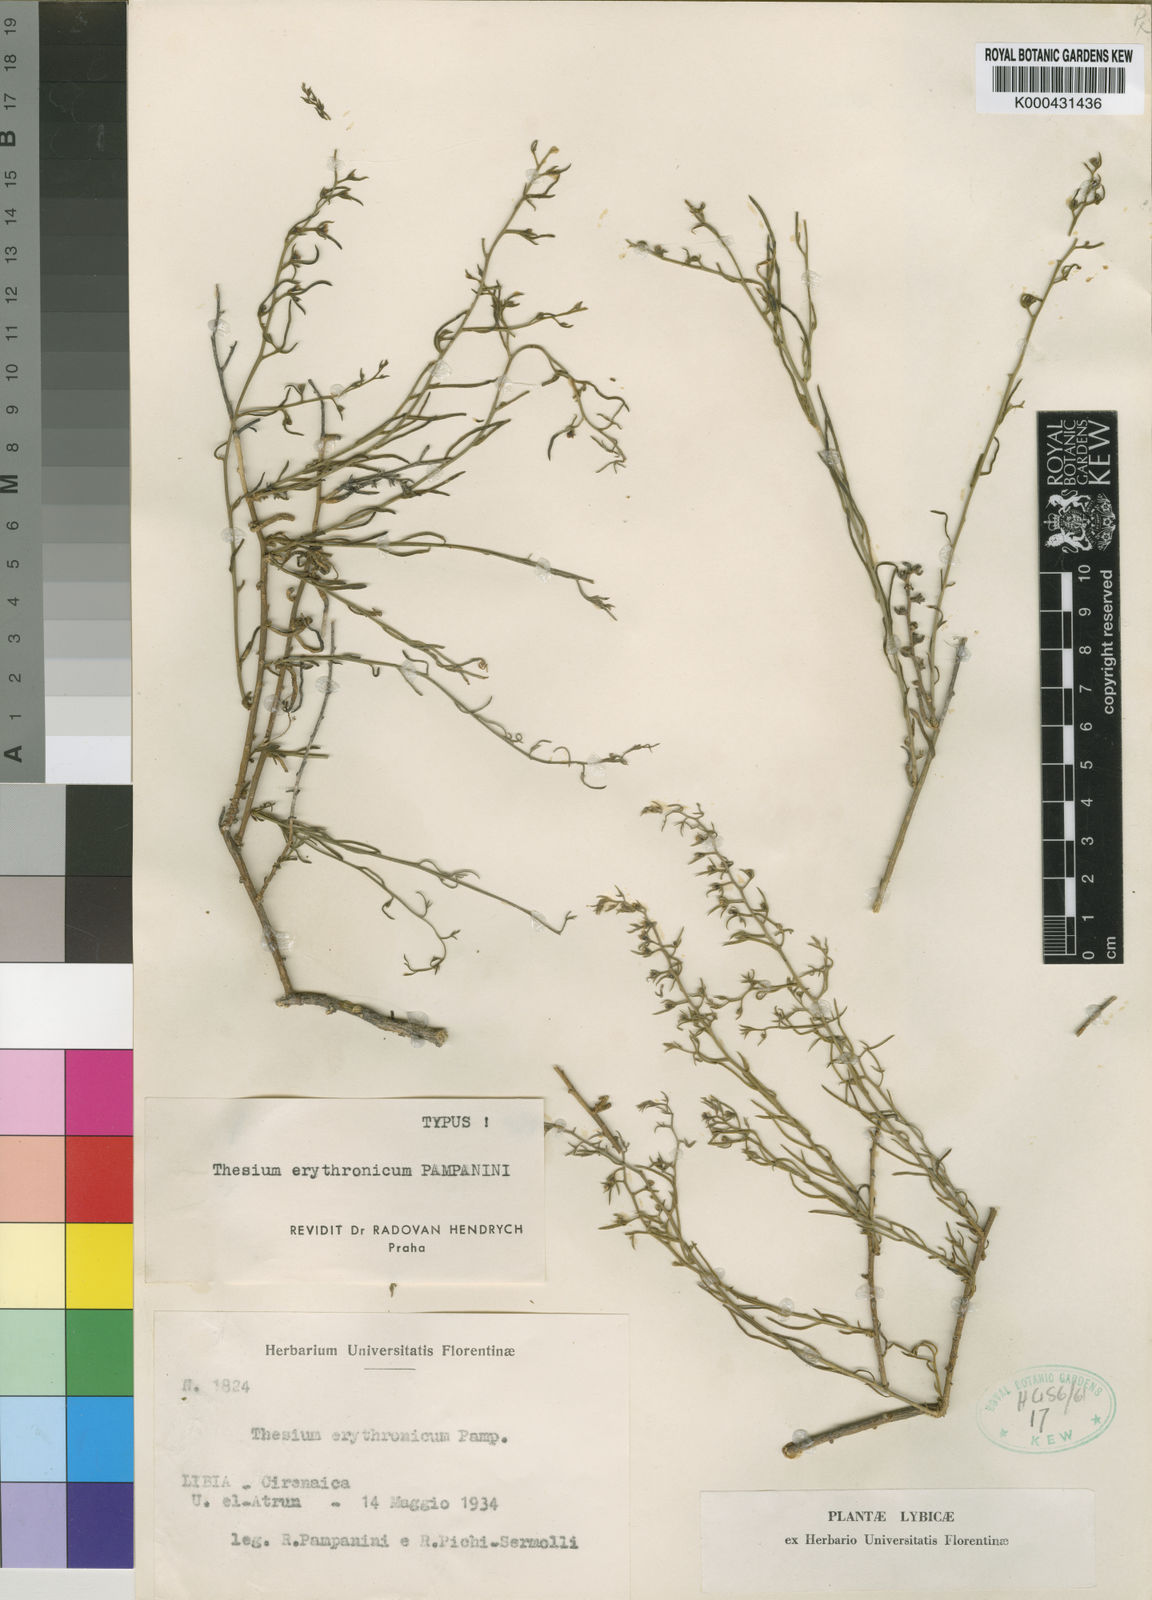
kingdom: Plantae
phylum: Tracheophyta
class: Magnoliopsida
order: Santalales
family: Thesiaceae
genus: Thesium
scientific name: Thesium erythronicum
